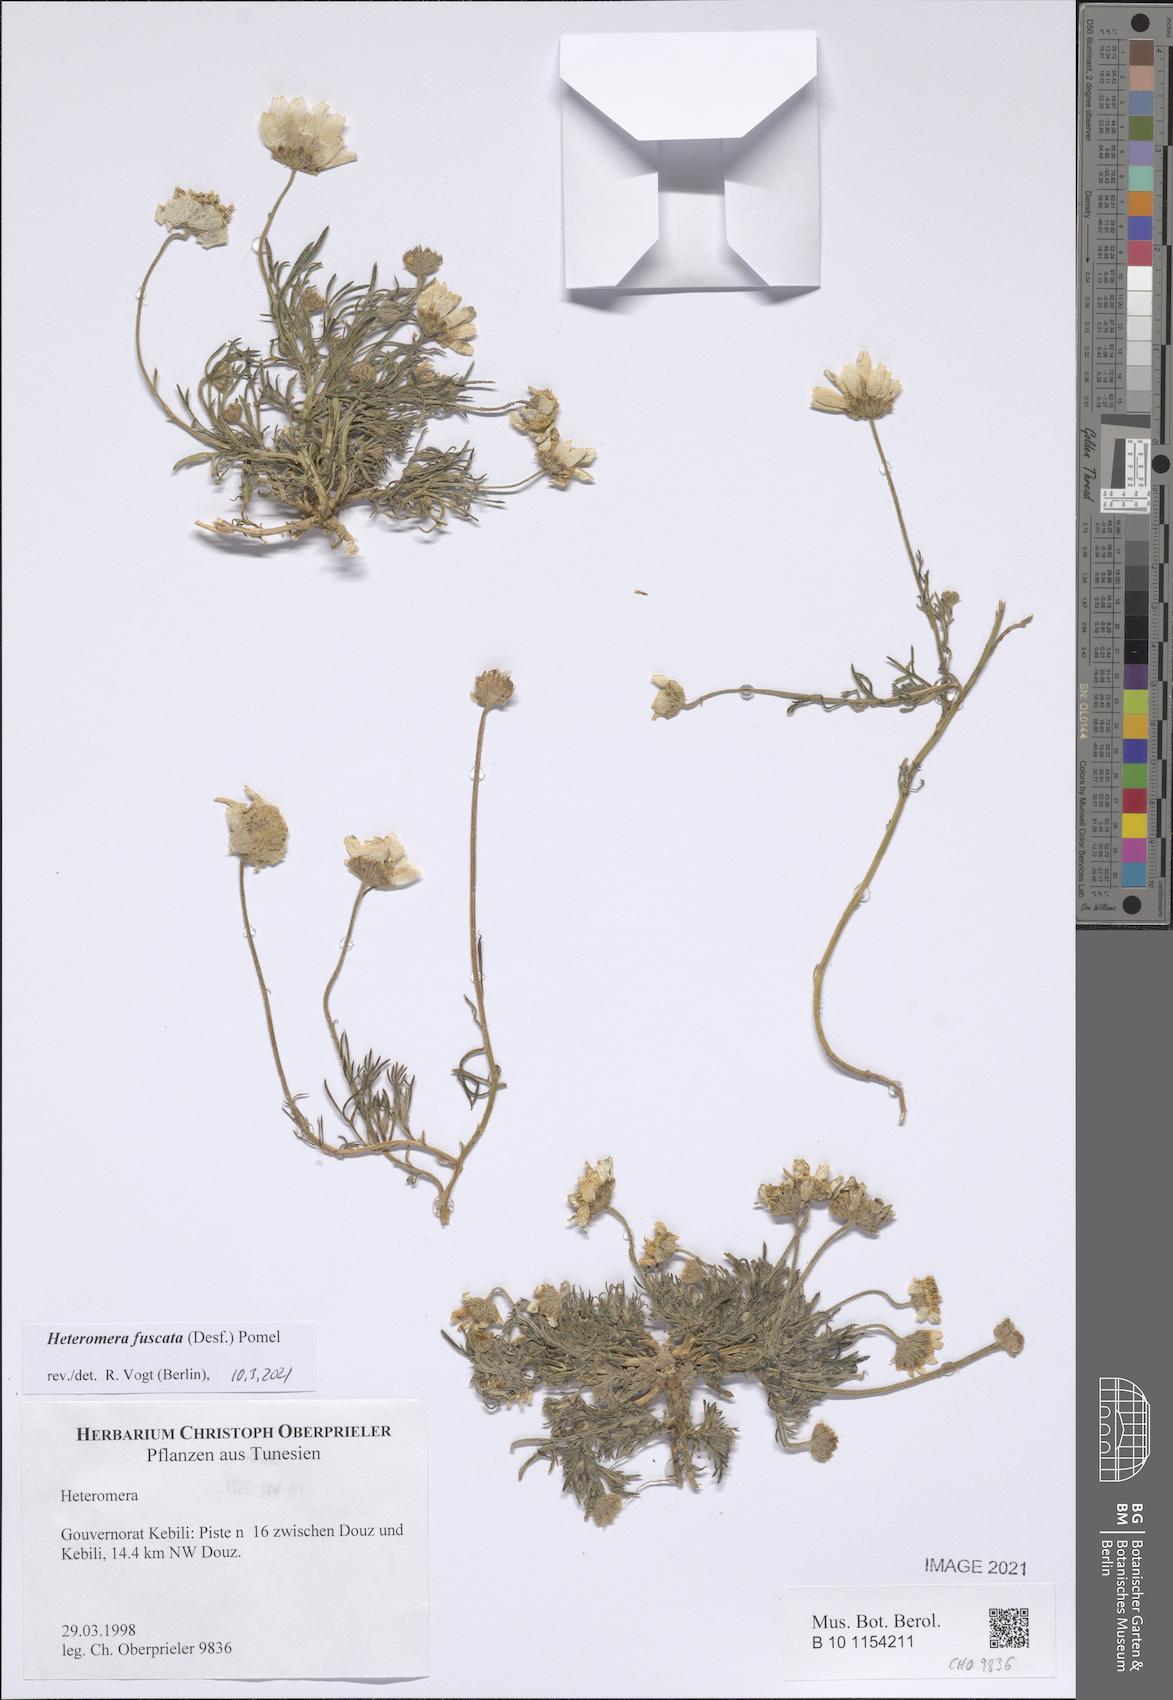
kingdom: Plantae
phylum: Tracheophyta
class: Magnoliopsida
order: Asterales
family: Asteraceae
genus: Heteromera
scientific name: Heteromera fuscata
